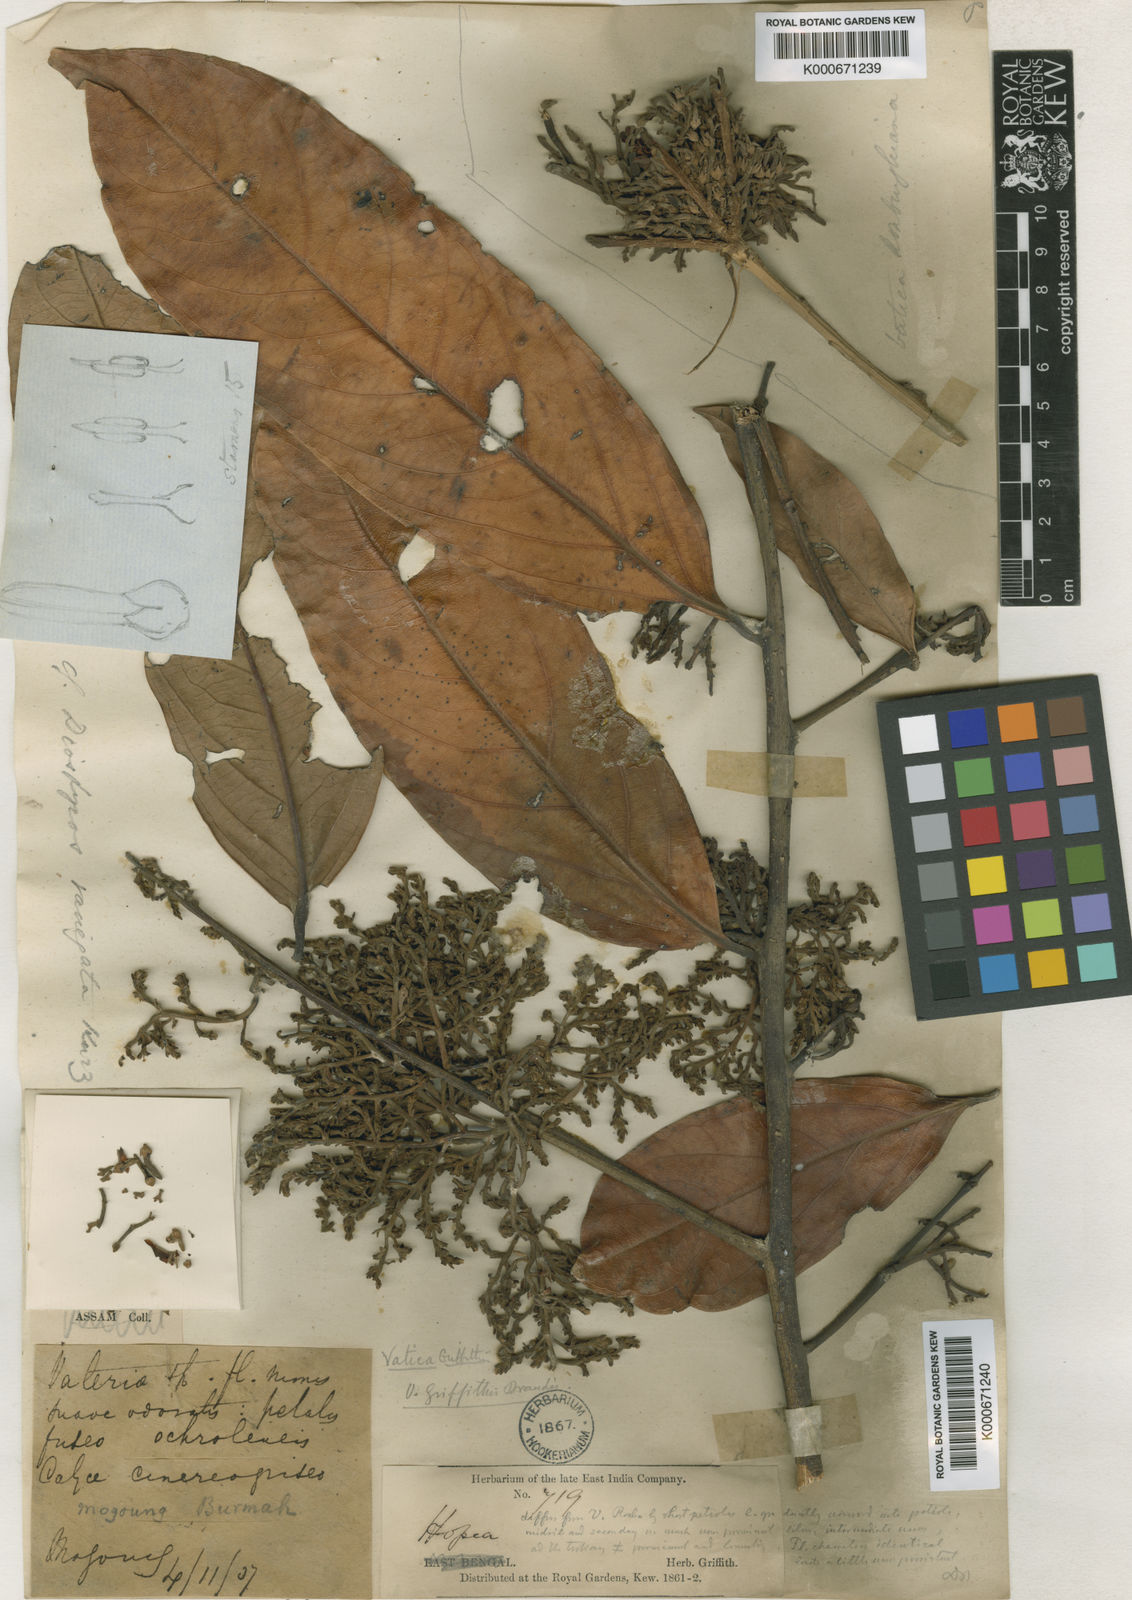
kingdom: Plantae
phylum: Tracheophyta
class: Magnoliopsida
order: Ericales
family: Ebenaceae
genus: Diospyros
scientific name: Diospyros variegata
